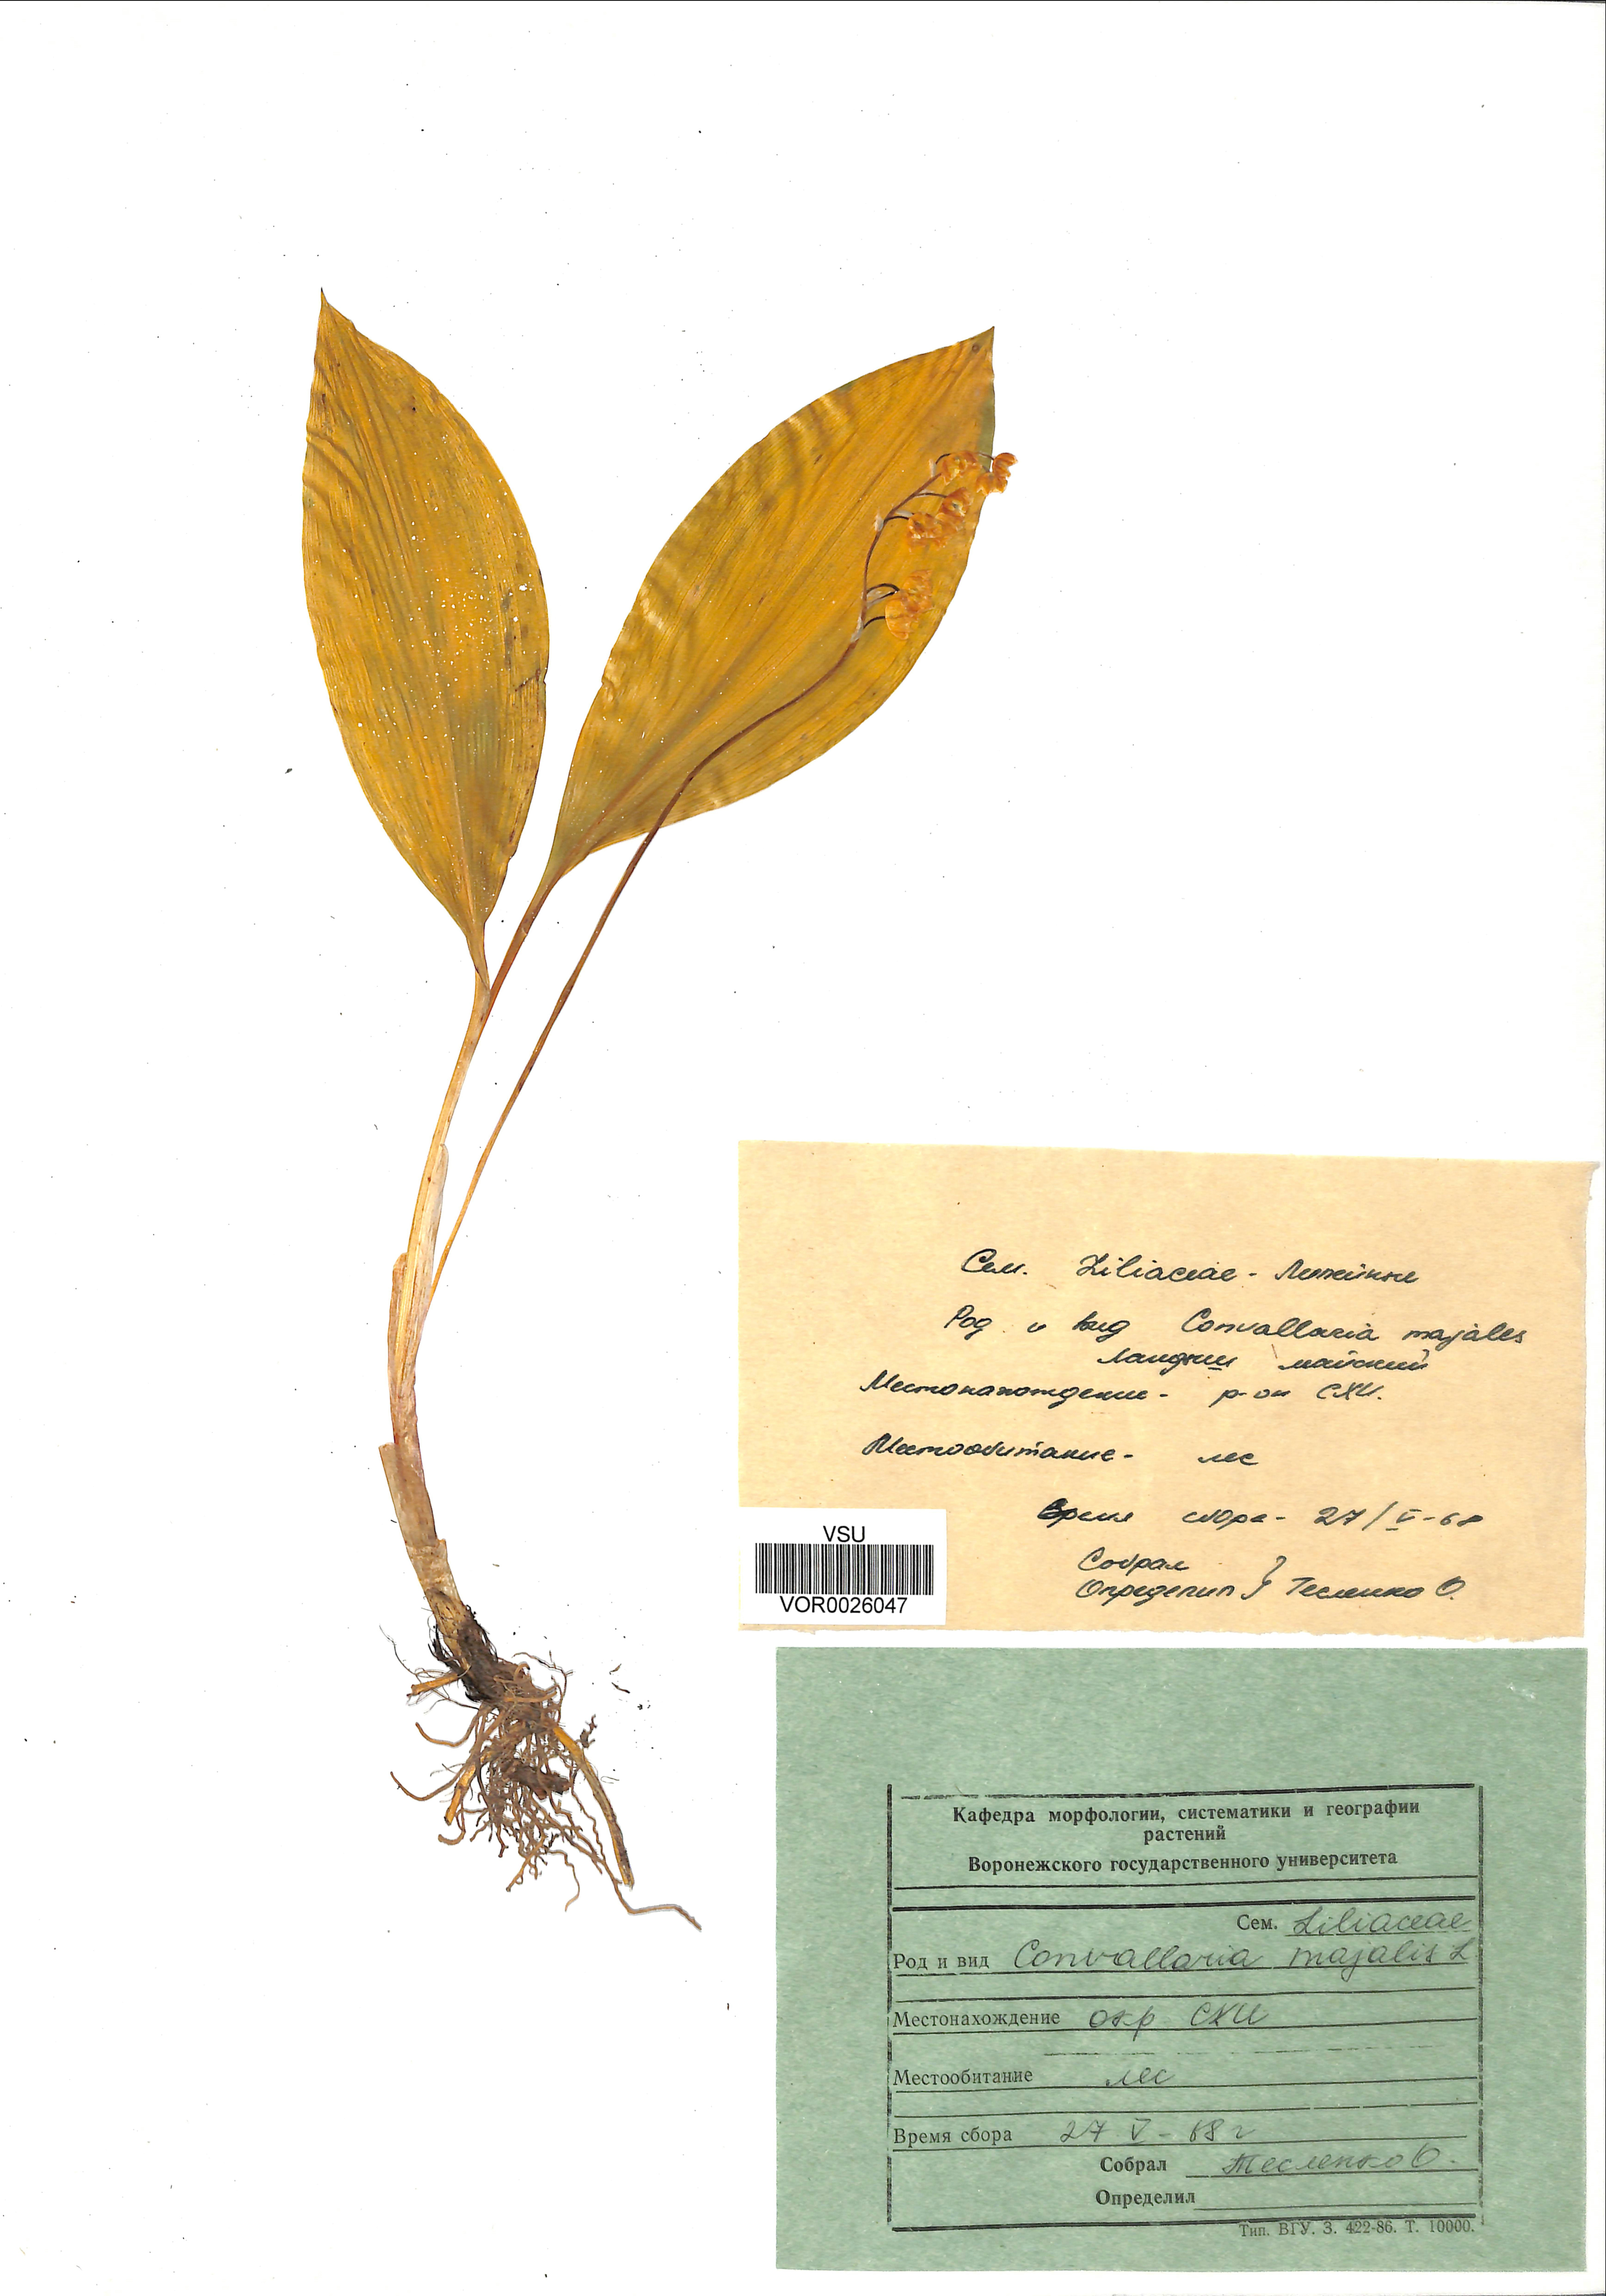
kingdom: Plantae
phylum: Tracheophyta
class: Liliopsida
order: Asparagales
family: Asparagaceae
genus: Convallaria
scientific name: Convallaria majalis
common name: Lily-of-the-valley
